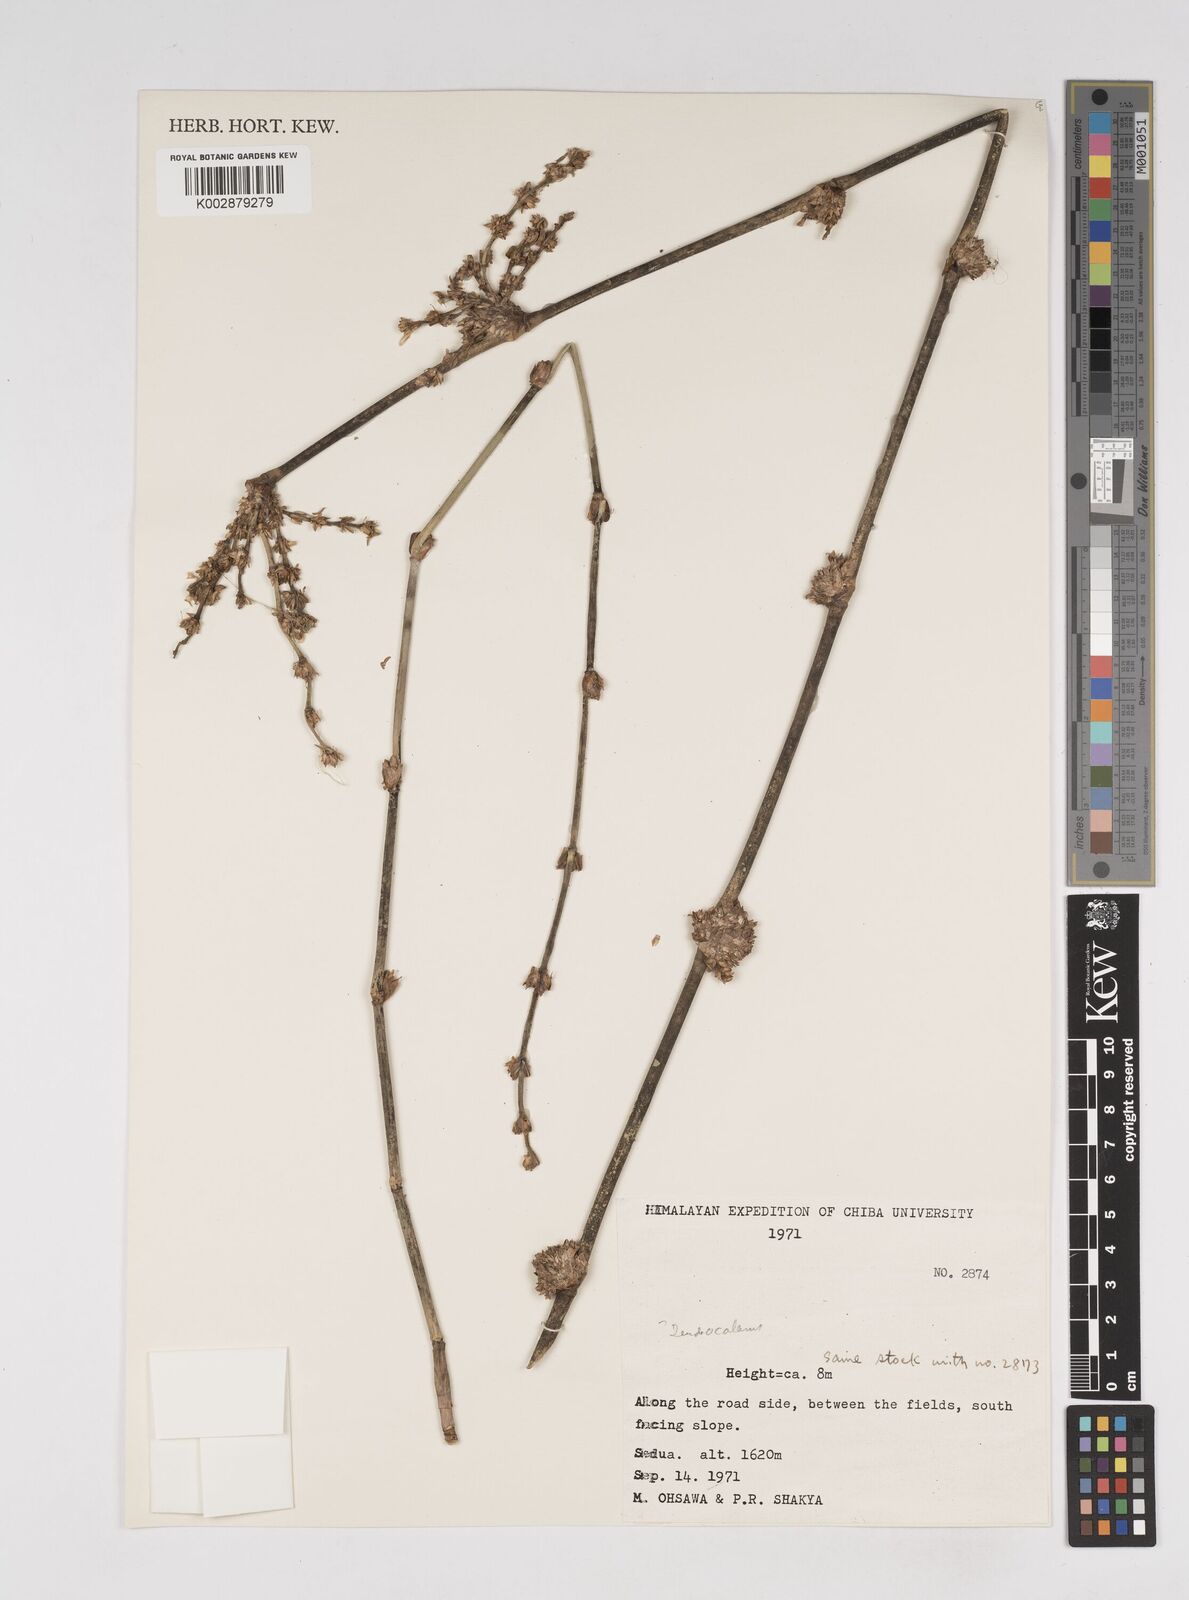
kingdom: Plantae
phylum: Tracheophyta
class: Liliopsida
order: Poales
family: Poaceae
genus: Dendrocalamus
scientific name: Dendrocalamus
